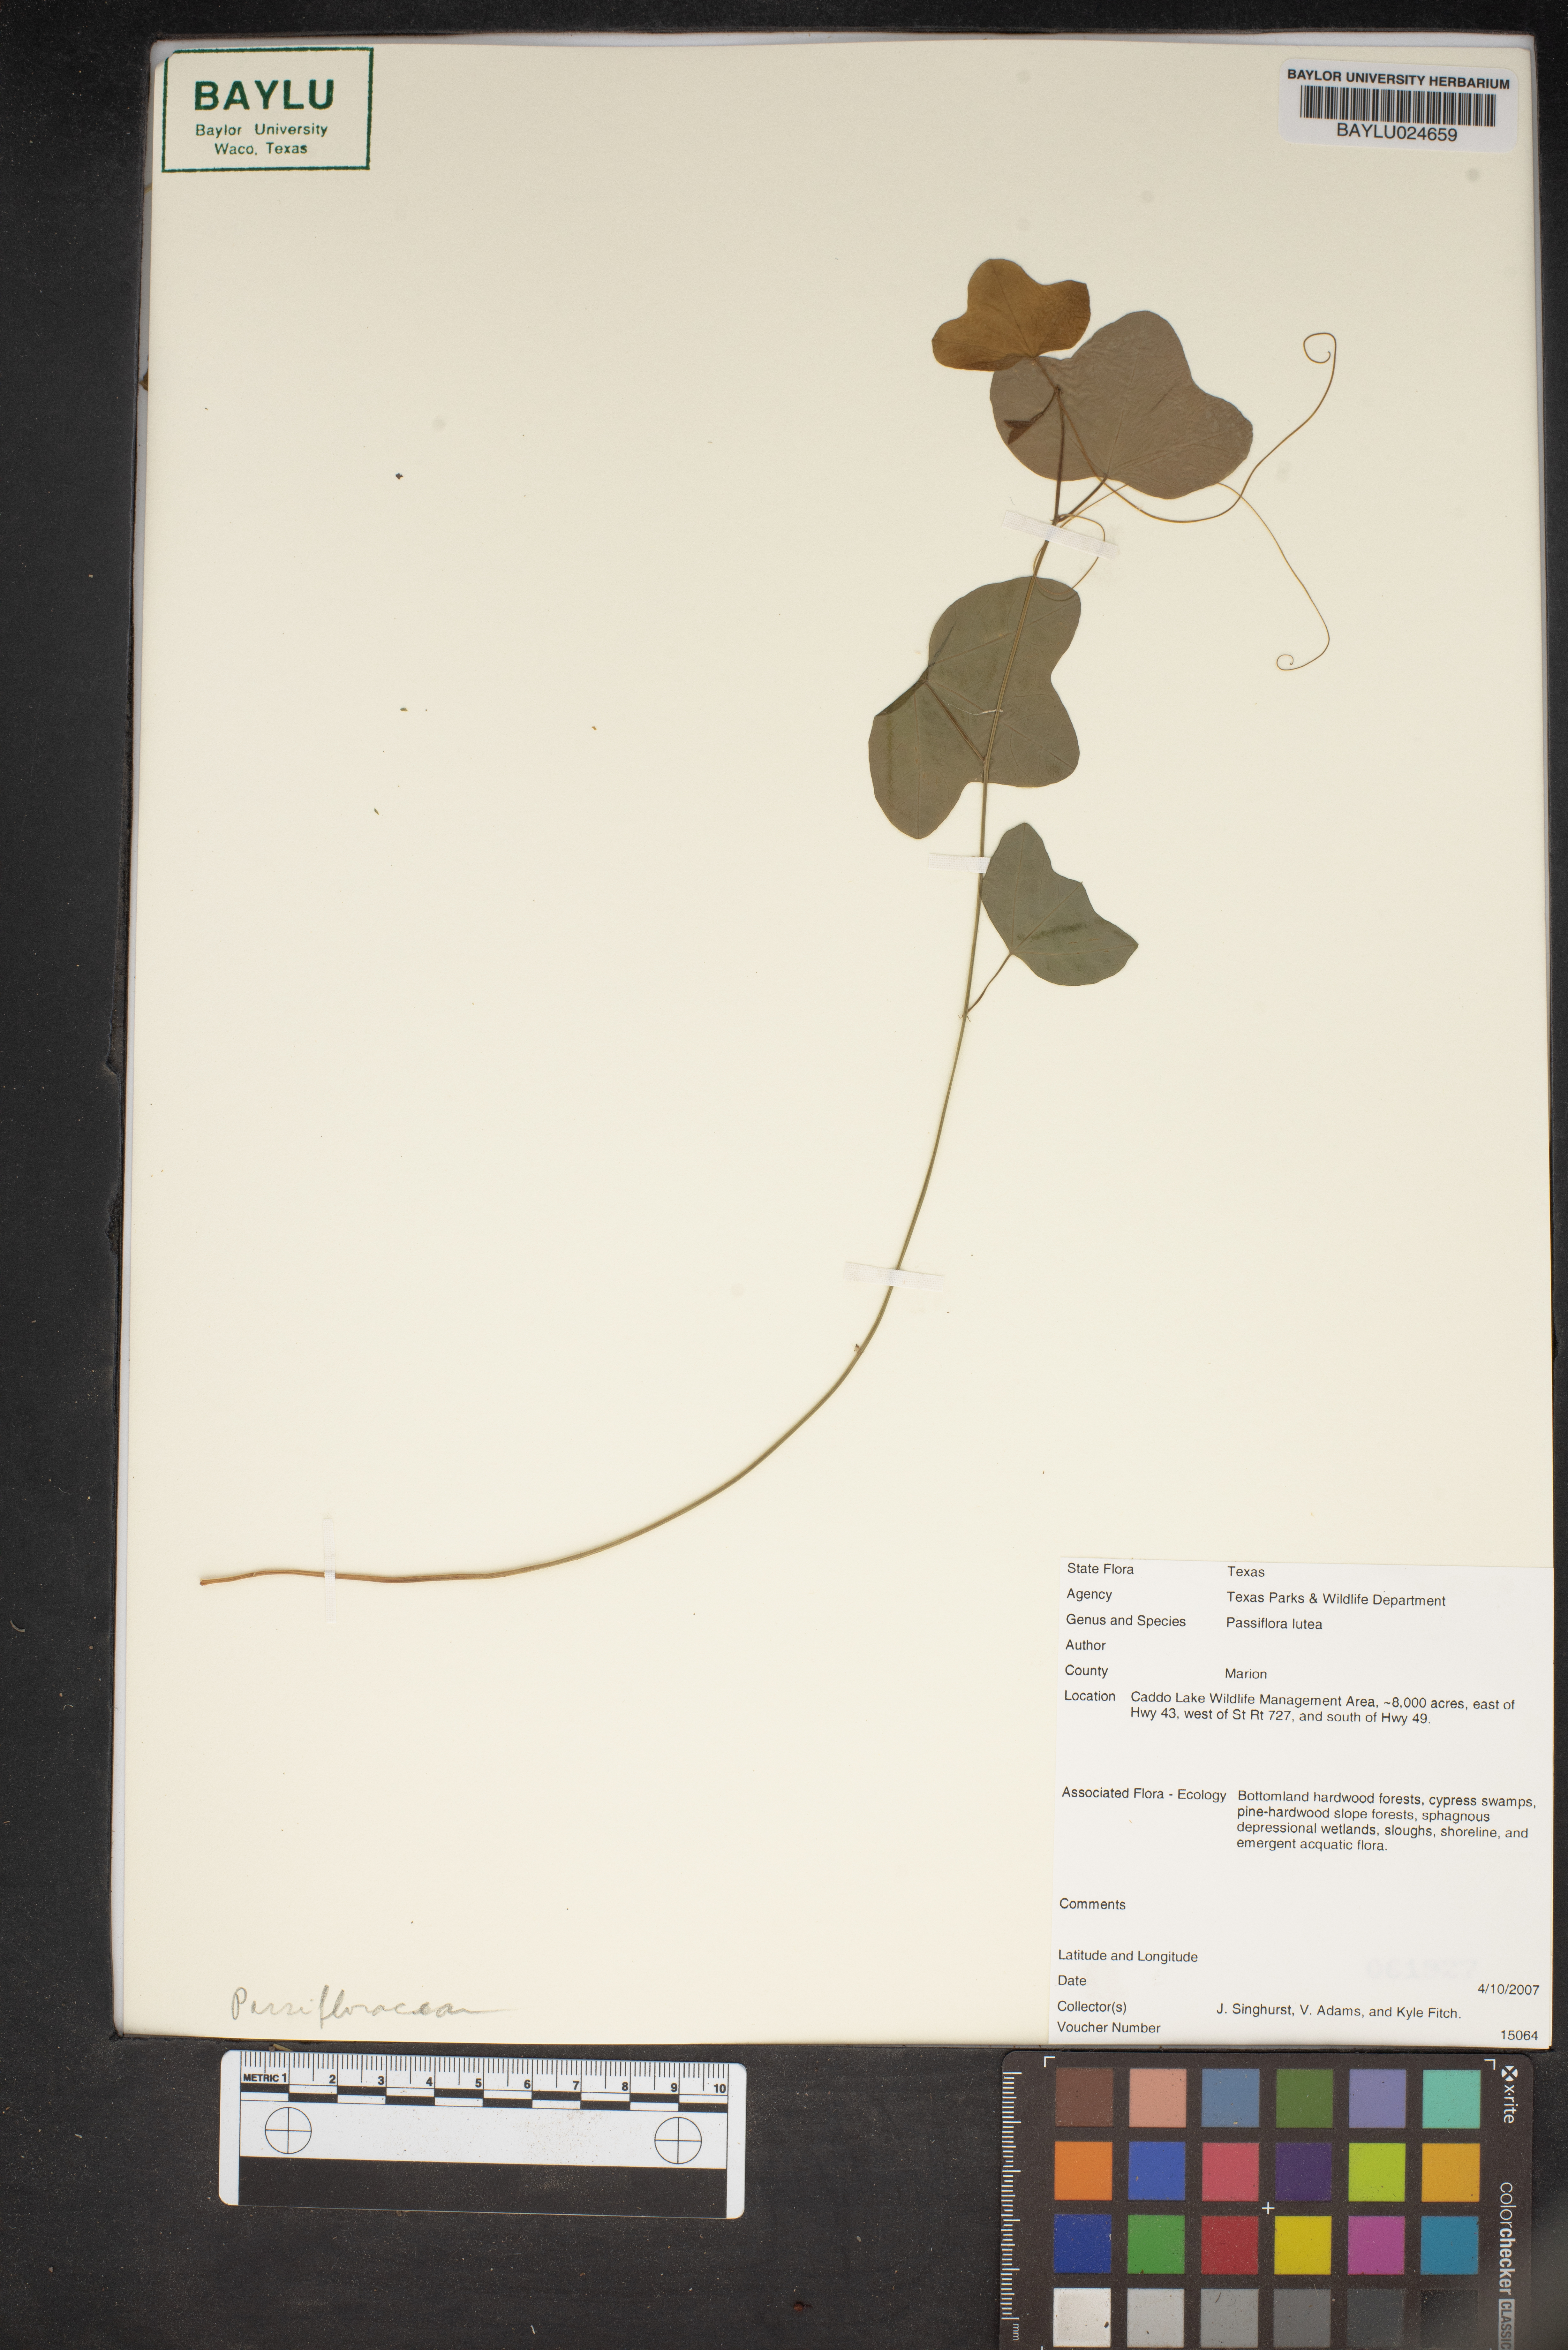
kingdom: Plantae
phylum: Tracheophyta
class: Magnoliopsida
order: Malpighiales
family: Passifloraceae
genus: Passiflora
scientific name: Passiflora lutea
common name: Yellow passionflower
